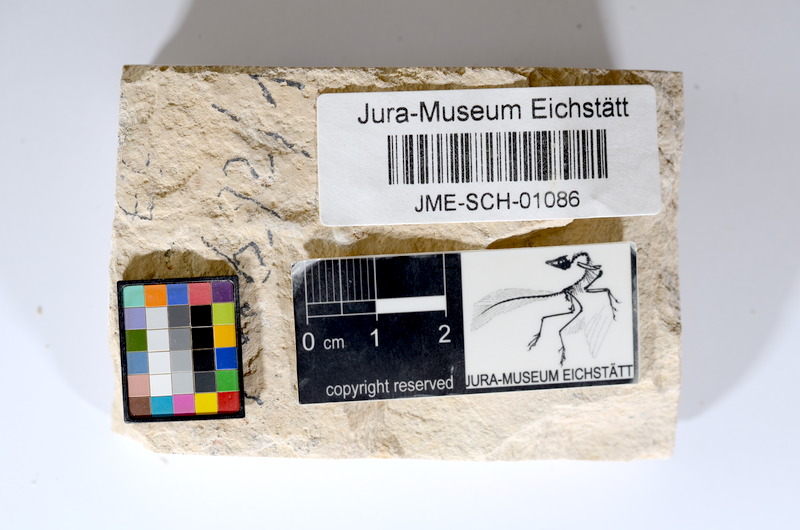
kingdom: Animalia
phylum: Chordata
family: Ascalaboidae
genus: Tharsis
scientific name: Tharsis dubius
